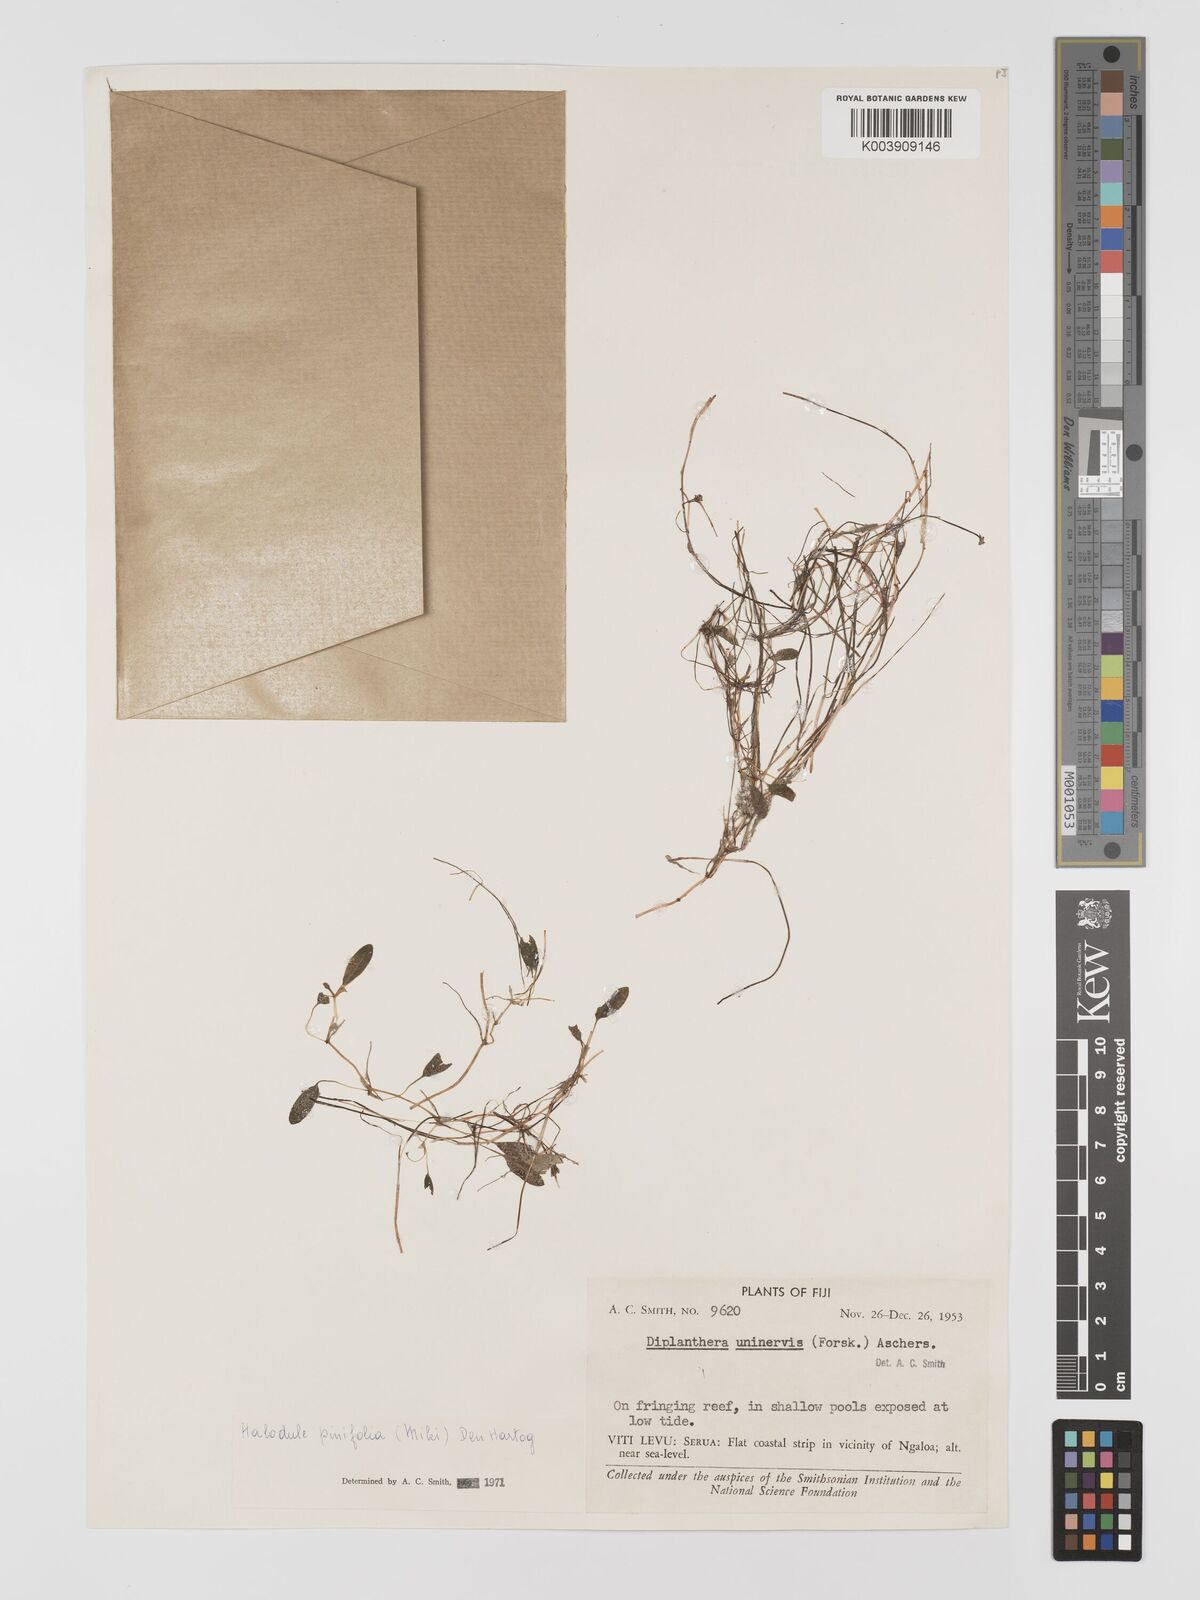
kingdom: Plantae
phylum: Tracheophyta
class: Liliopsida
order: Alismatales
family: Cymodoceaceae
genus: Halodule
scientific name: Halodule pinifolia
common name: Species code: hp
